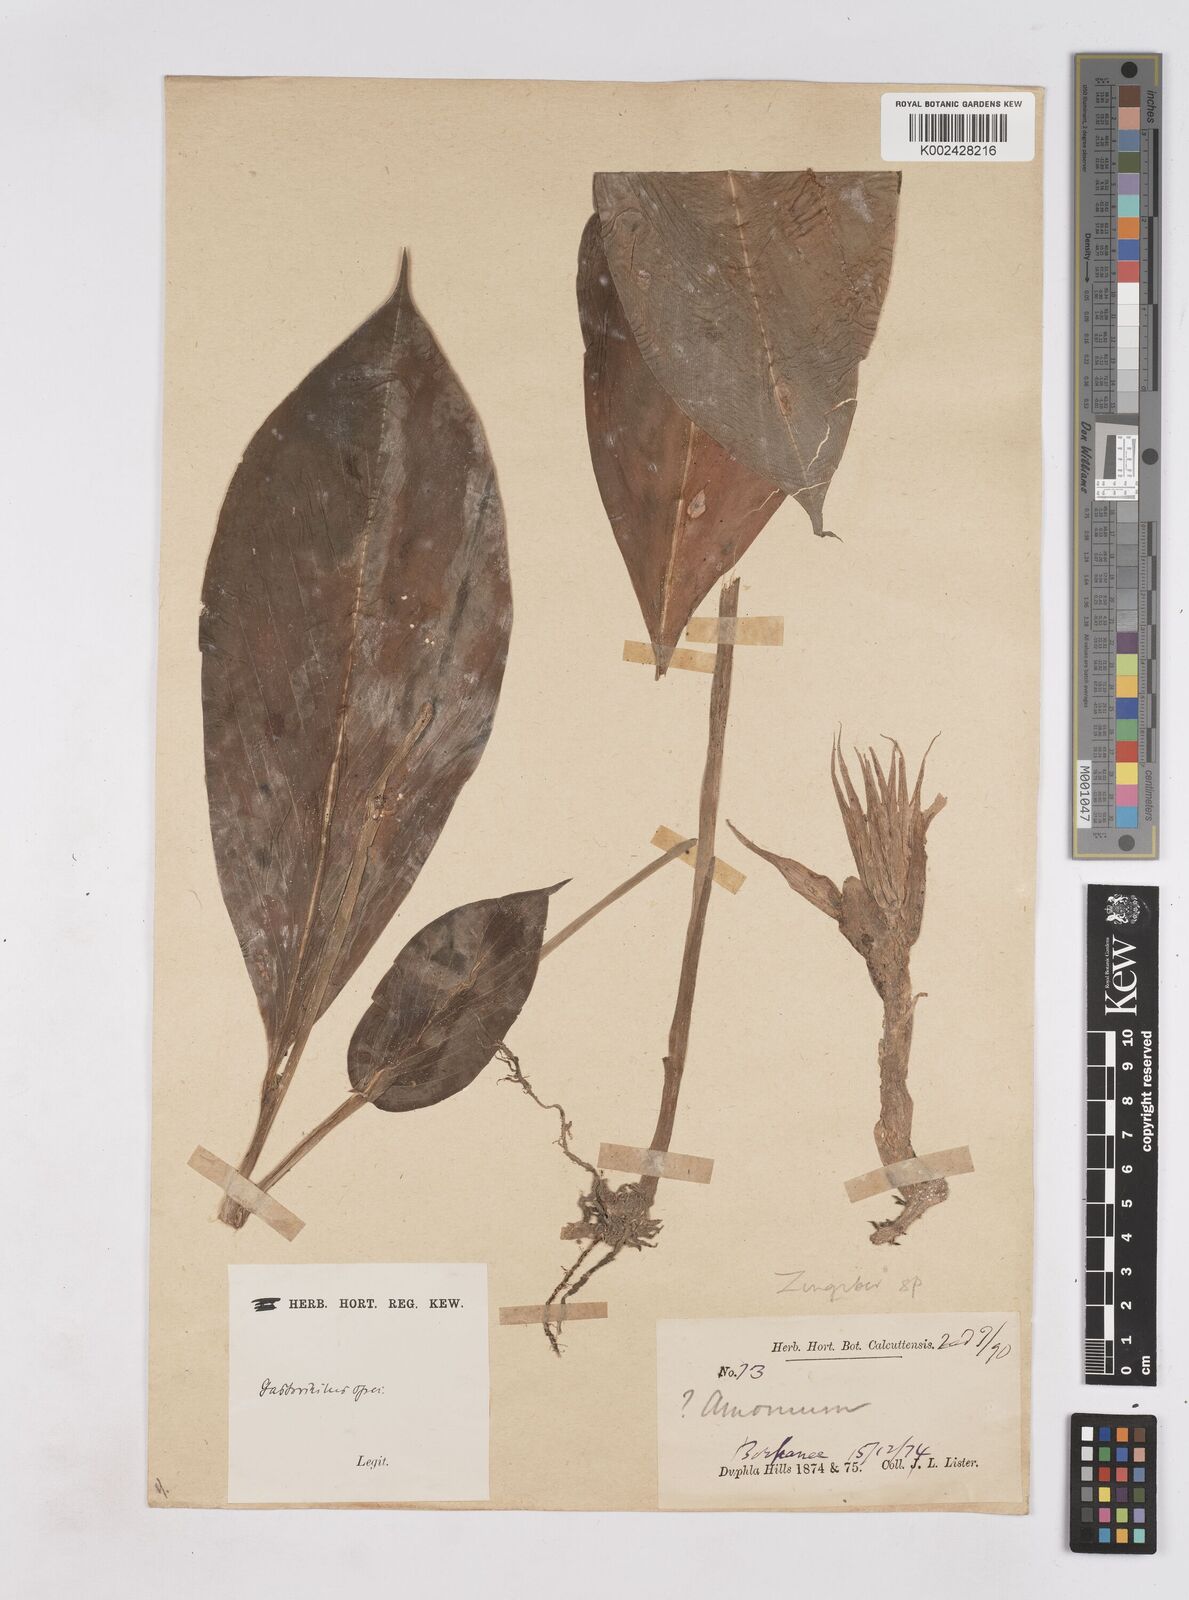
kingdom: Plantae
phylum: Tracheophyta
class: Liliopsida
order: Zingiberales
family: Zingiberaceae
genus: Boesenbergia
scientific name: Boesenbergia
